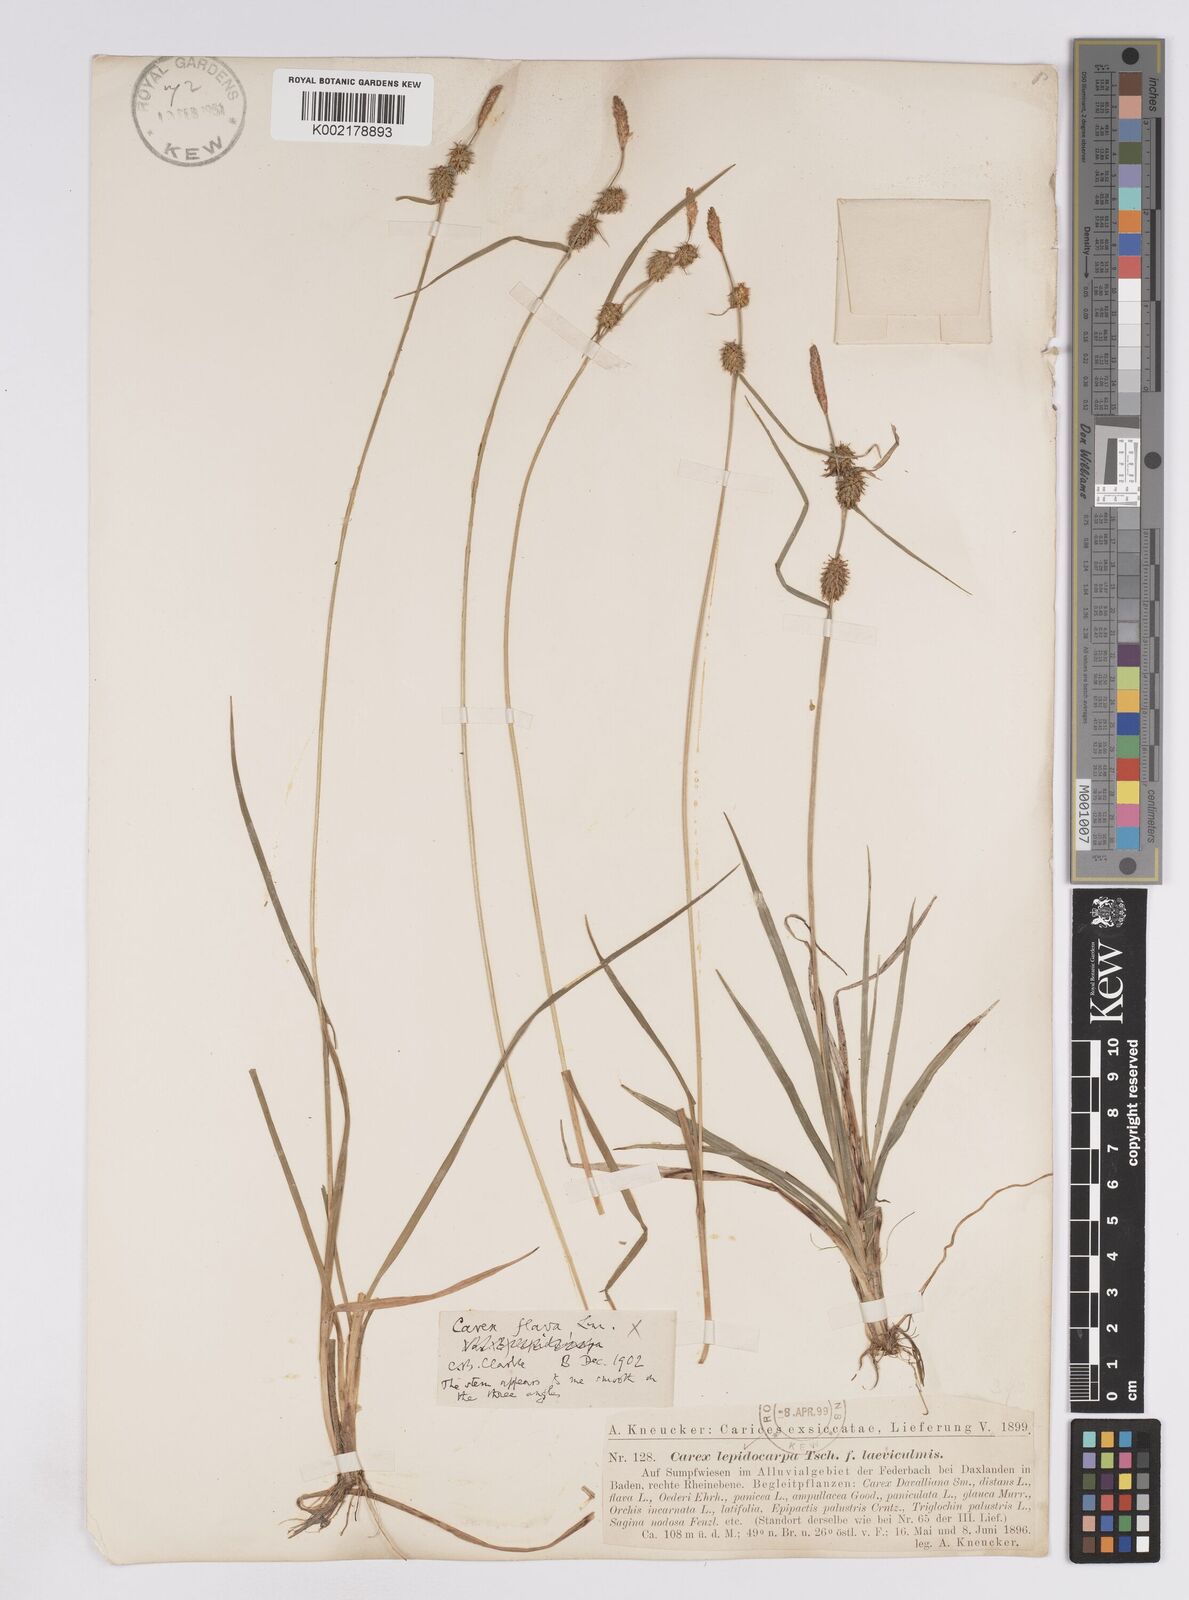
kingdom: Plantae
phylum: Tracheophyta
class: Liliopsida
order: Poales
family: Cyperaceae
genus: Carex
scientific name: Carex lepidocarpa
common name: Long-stalked yellow-sedge
